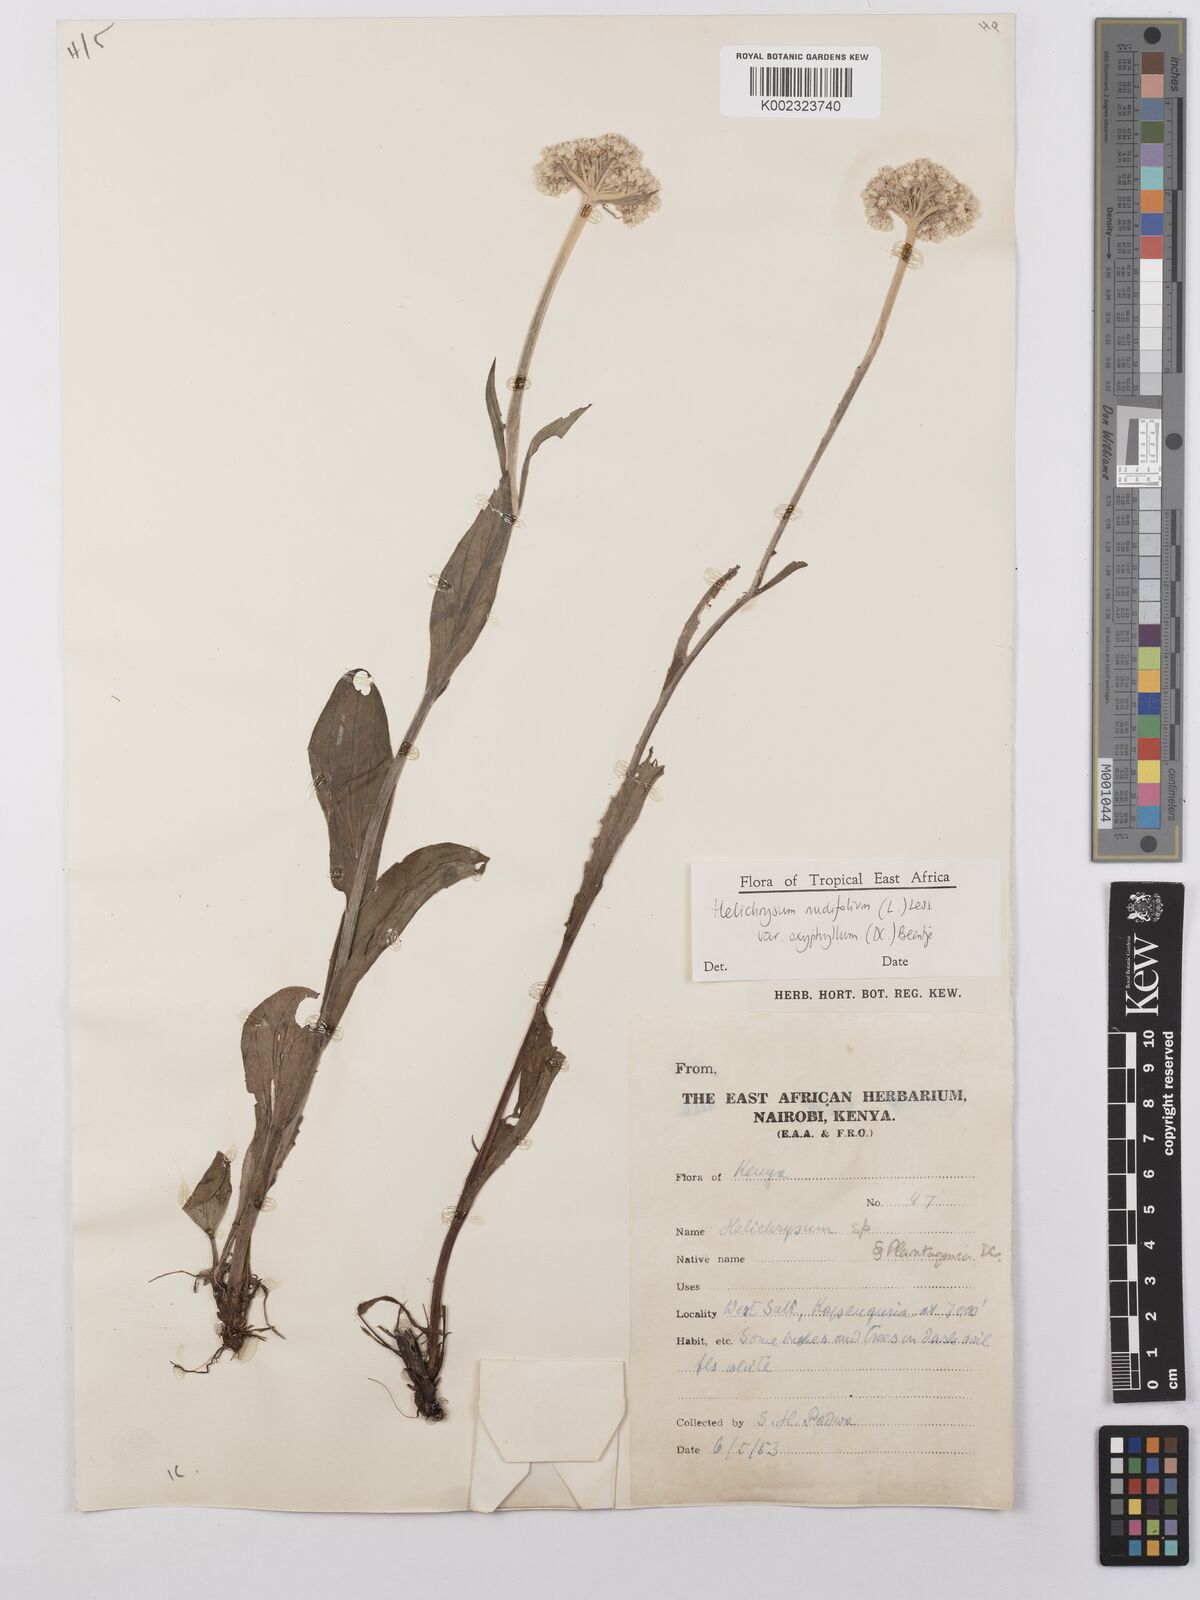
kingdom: Plantae
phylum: Tracheophyta
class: Magnoliopsida
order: Asterales
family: Asteraceae
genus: Helichrysum
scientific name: Helichrysum nudifolium
